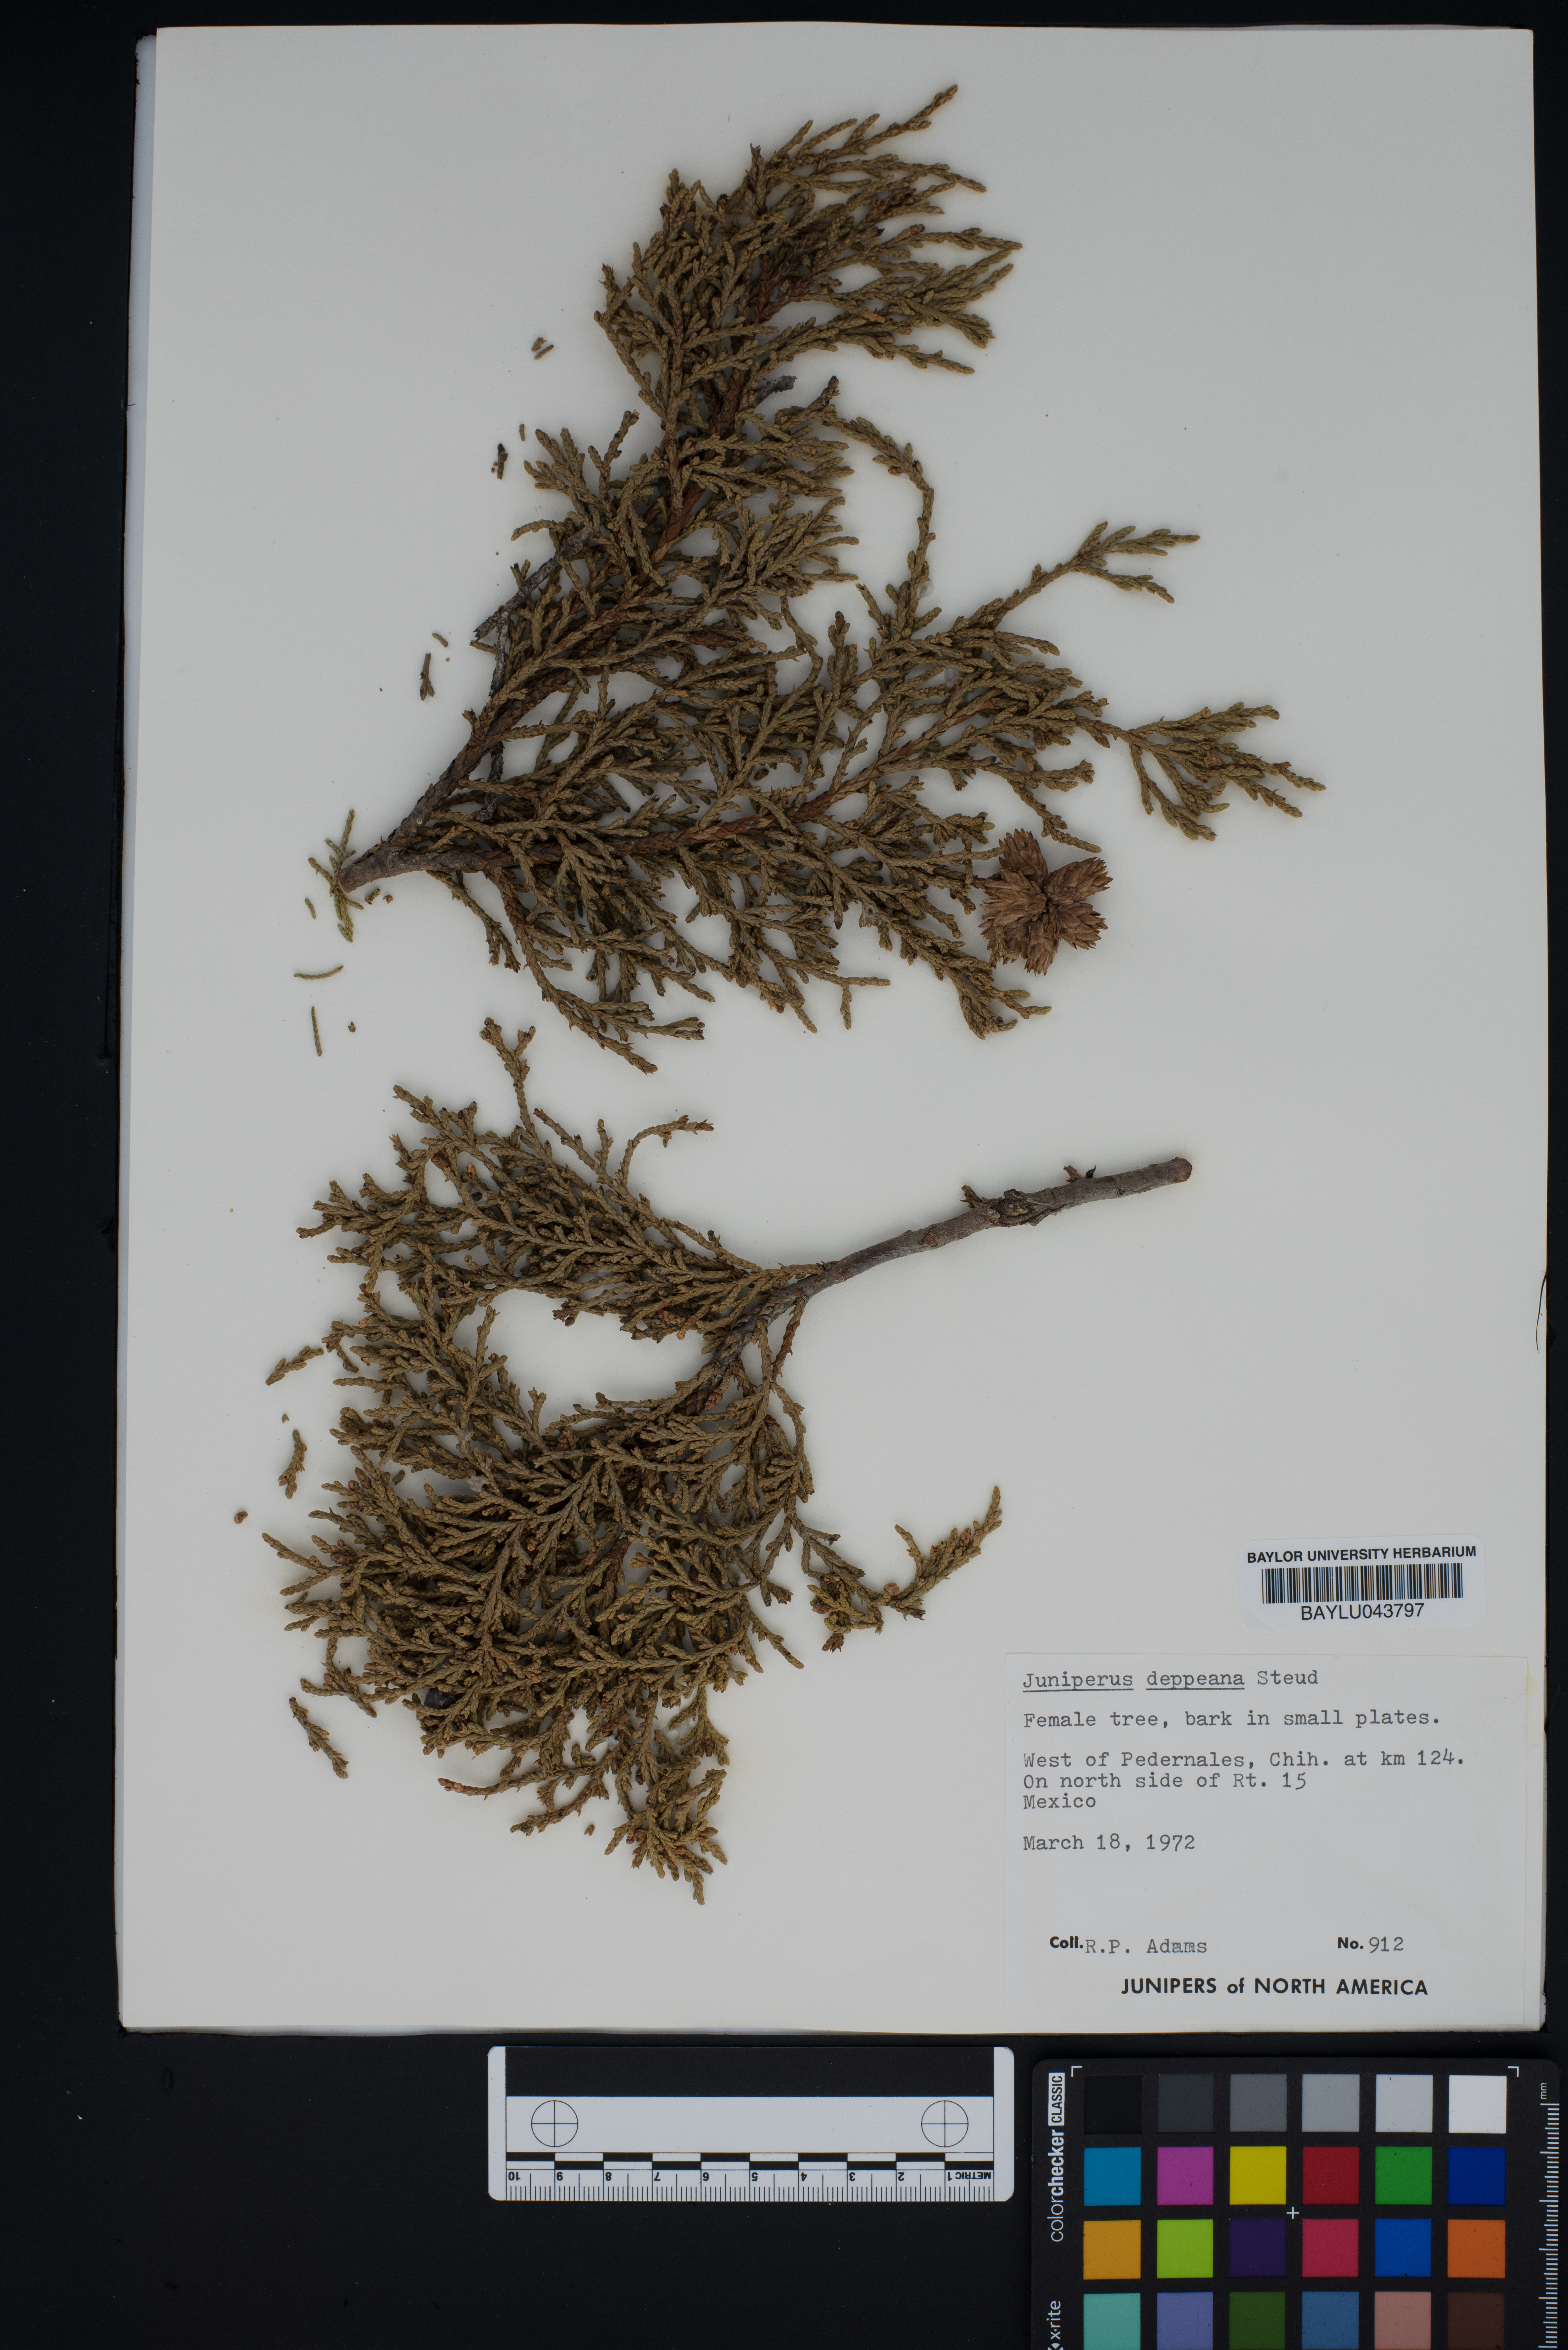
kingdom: Plantae
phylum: Tracheophyta
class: Pinopsida
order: Pinales
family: Cupressaceae
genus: Juniperus
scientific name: Juniperus deppeana
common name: Alligator juniper
